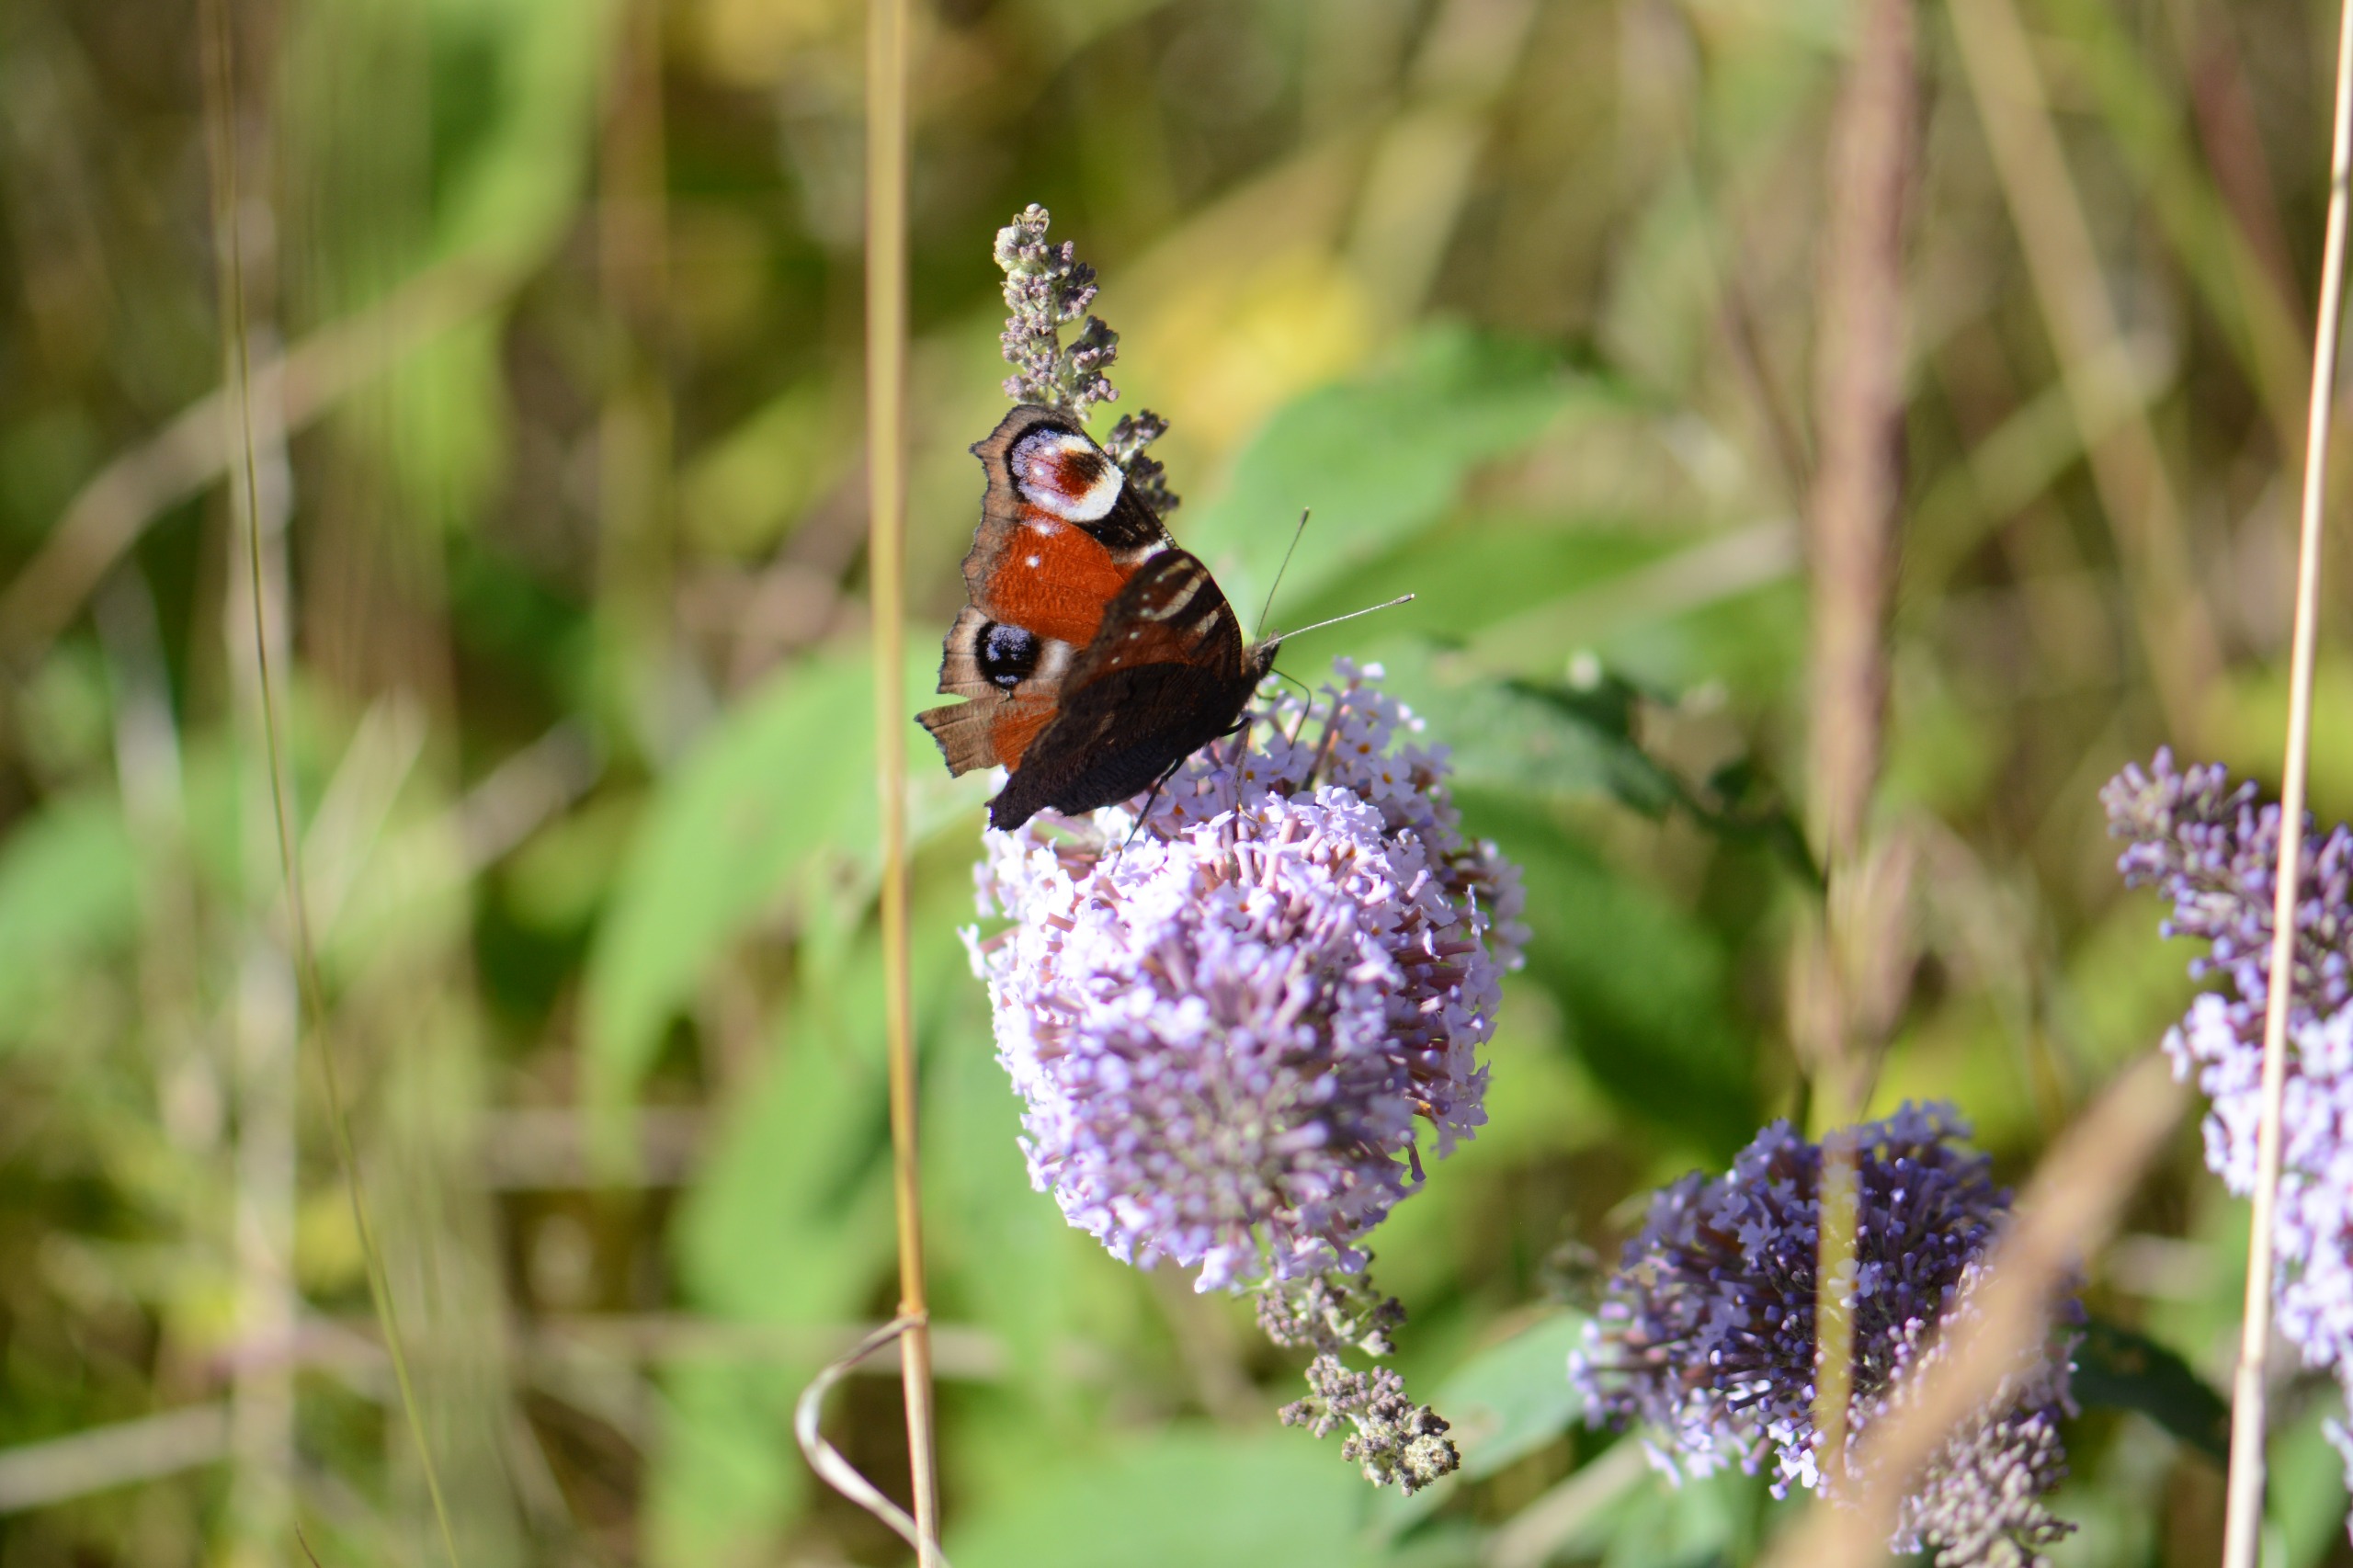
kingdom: Animalia
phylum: Arthropoda
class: Insecta
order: Lepidoptera
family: Nymphalidae
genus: Aglais
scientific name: Aglais io
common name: Dagpåfugleøje
